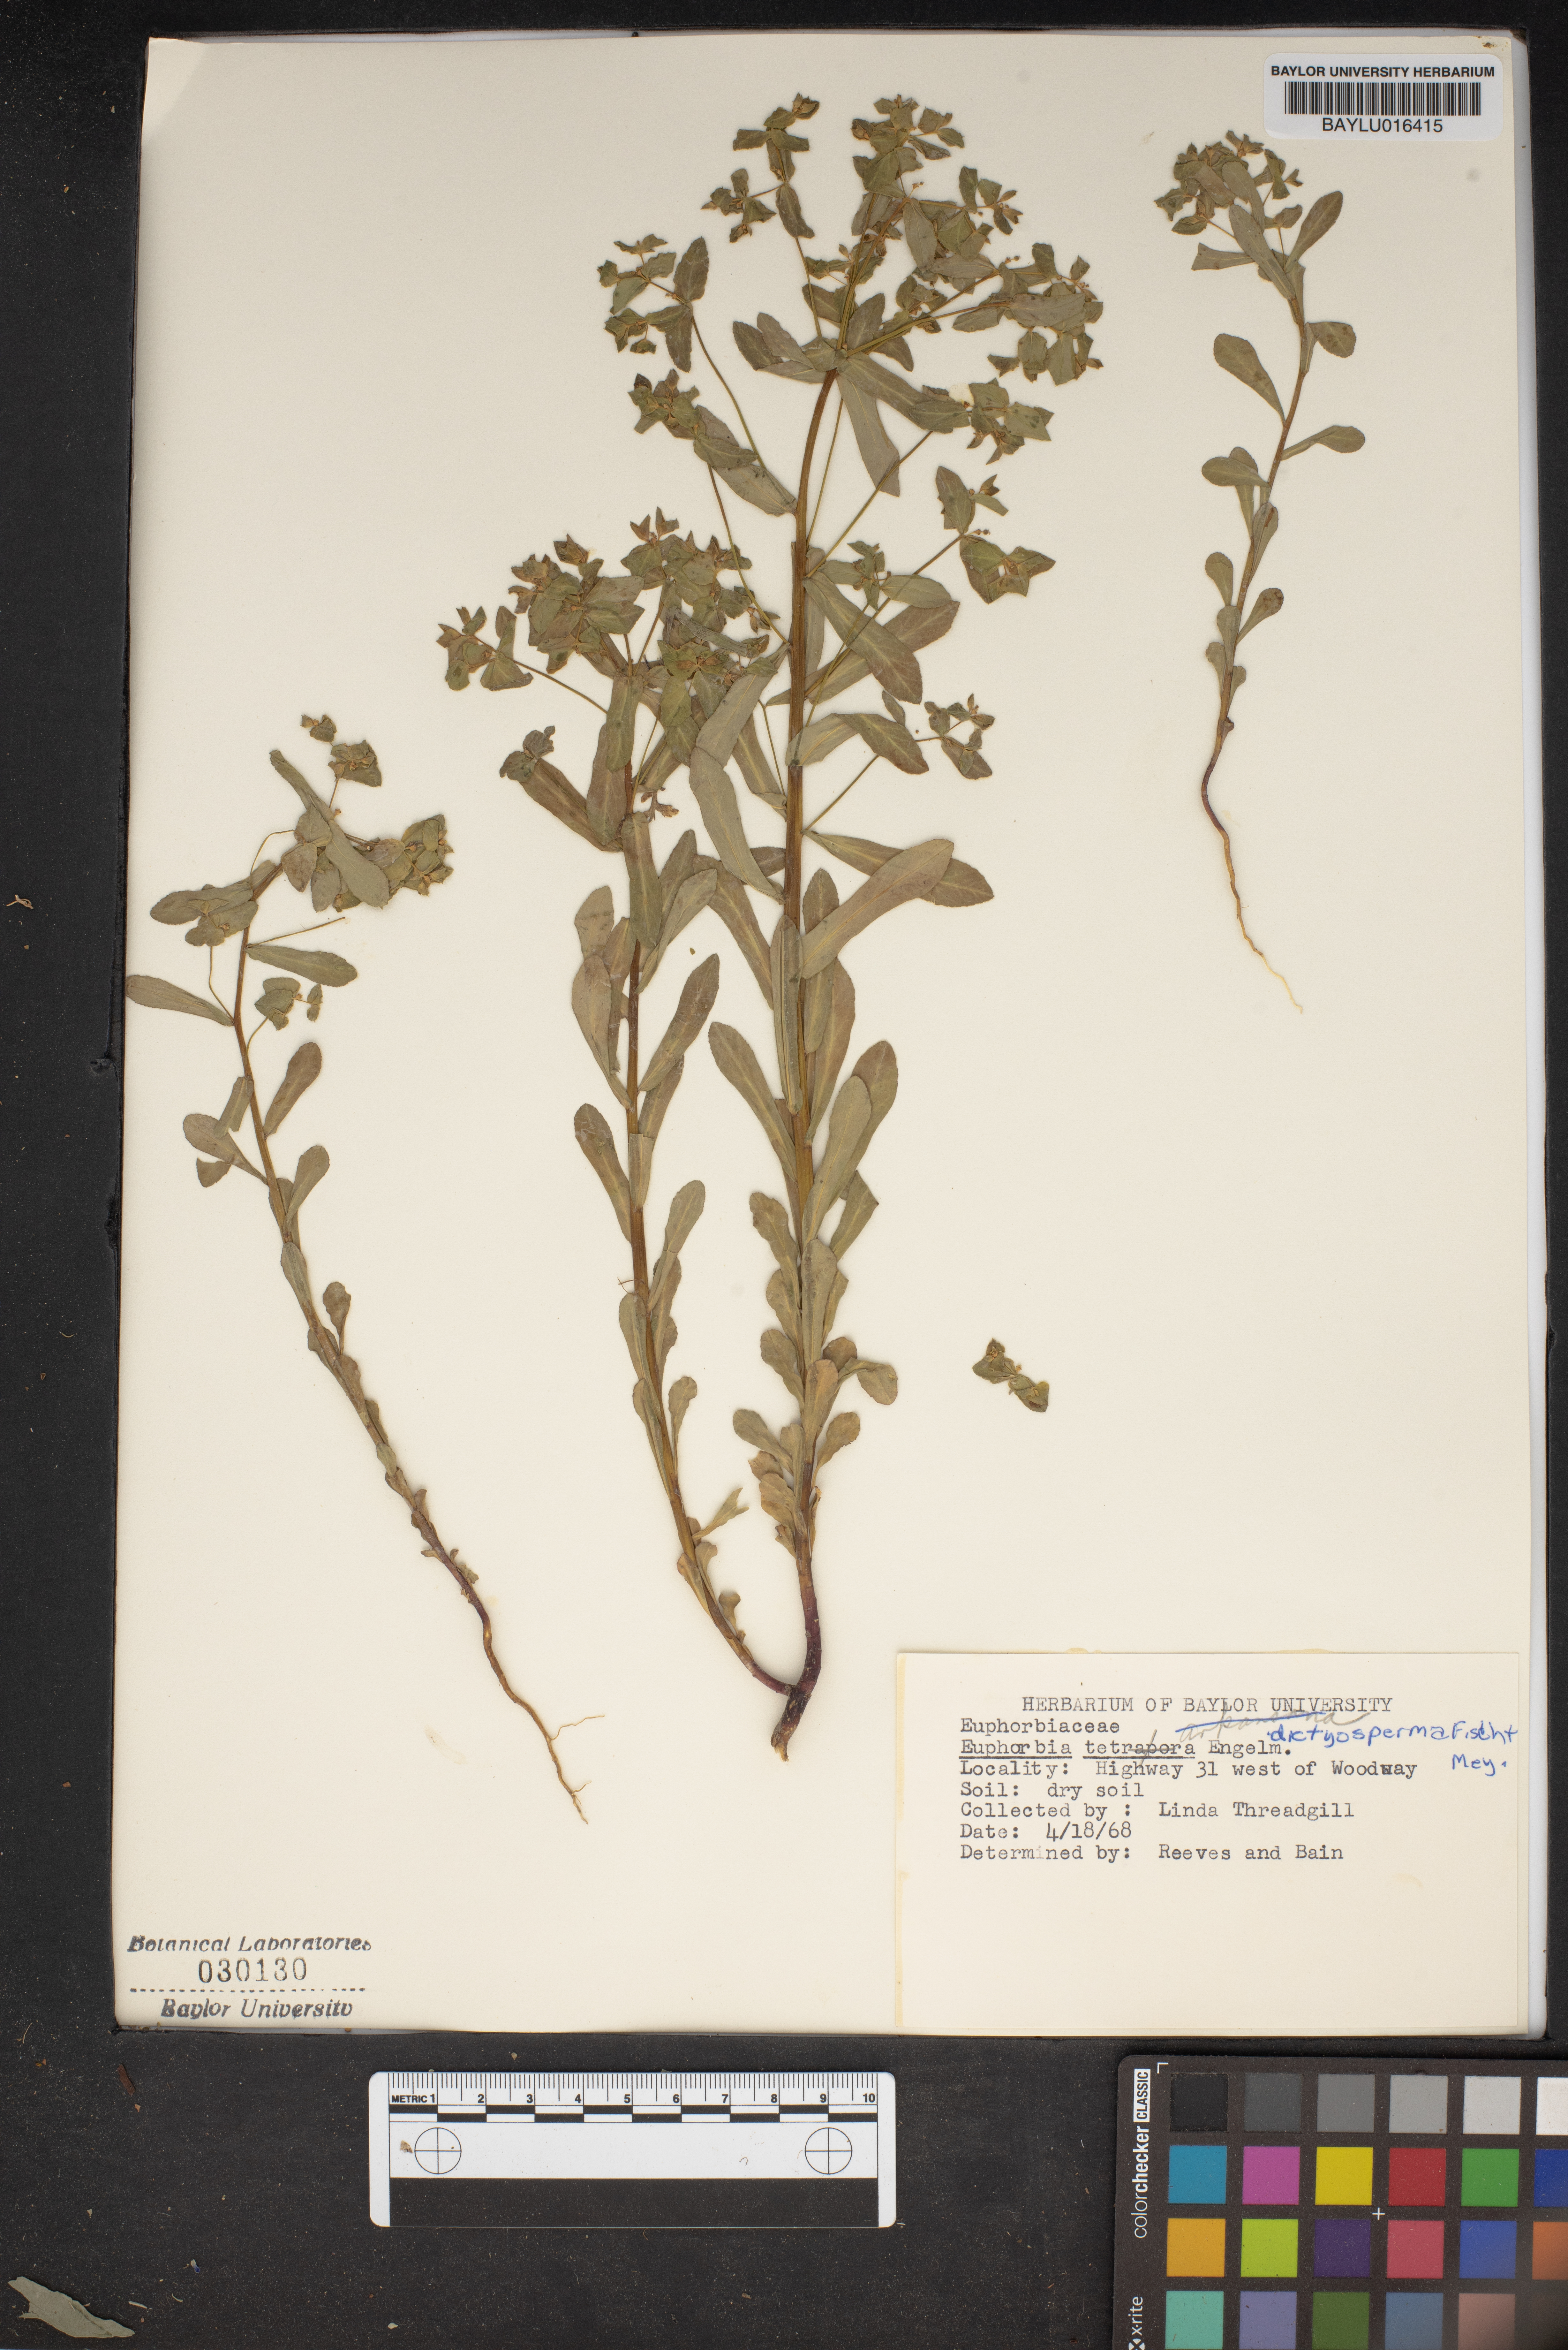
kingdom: Plantae
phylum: Tracheophyta
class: Magnoliopsida
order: Malpighiales
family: Euphorbiaceae
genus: Euphorbia
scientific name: Euphorbia spathulata
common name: Blunt spurge
